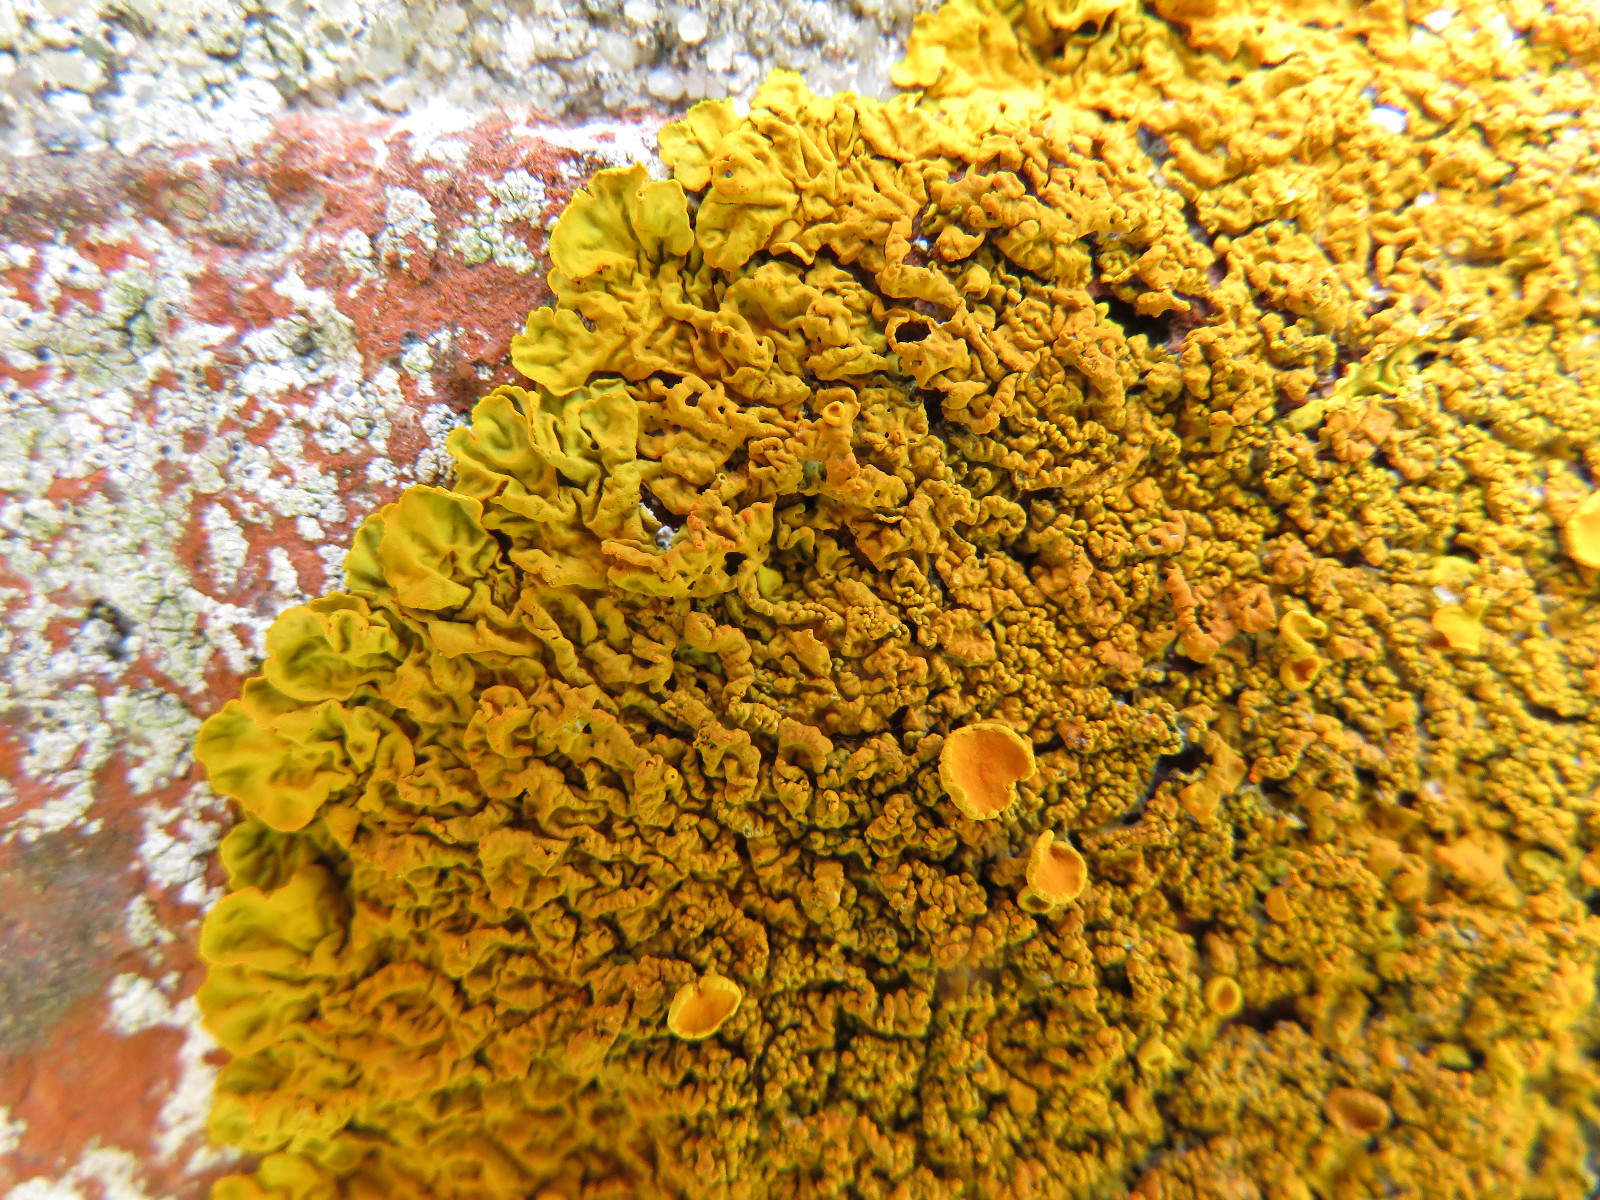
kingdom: Fungi
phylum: Ascomycota
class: Lecanoromycetes
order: Teloschistales
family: Teloschistaceae
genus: Xanthoria
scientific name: Xanthoria calcicola
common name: vortet væggelav
